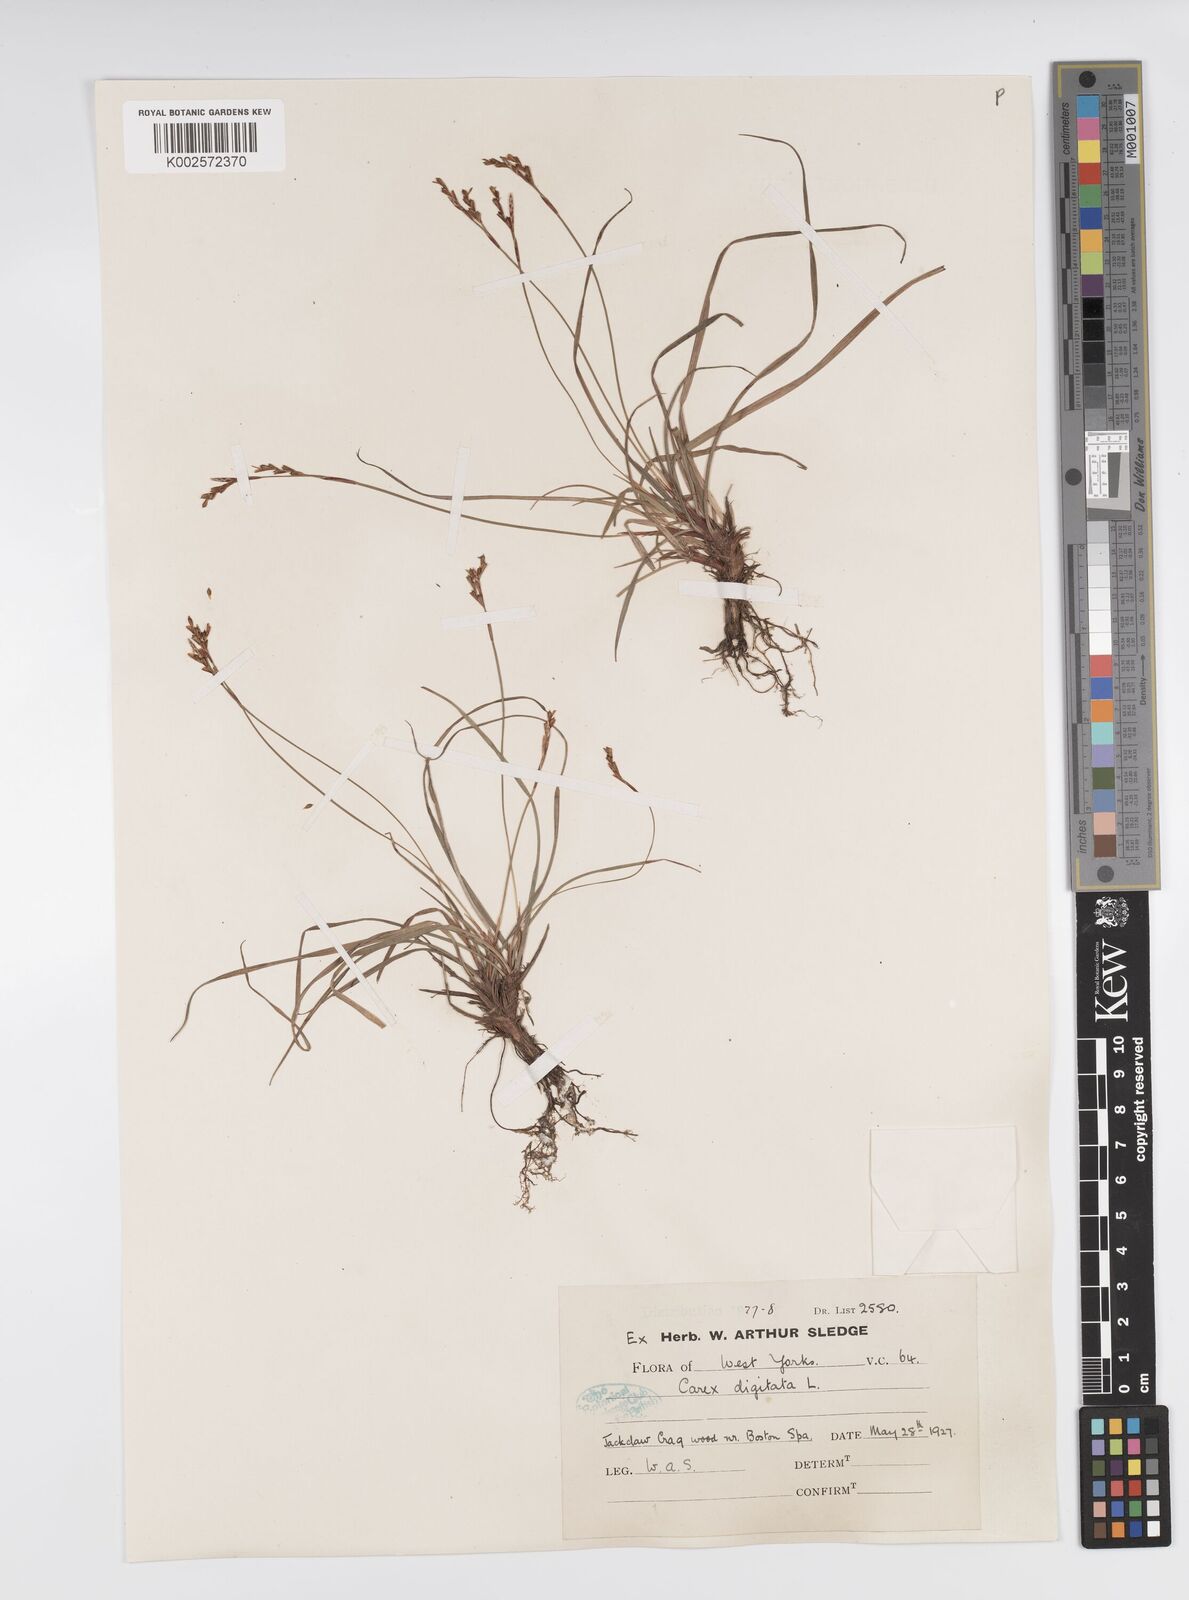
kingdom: Plantae
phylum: Tracheophyta
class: Liliopsida
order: Poales
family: Cyperaceae
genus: Carex
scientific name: Carex digitata
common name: Fingered sedge
